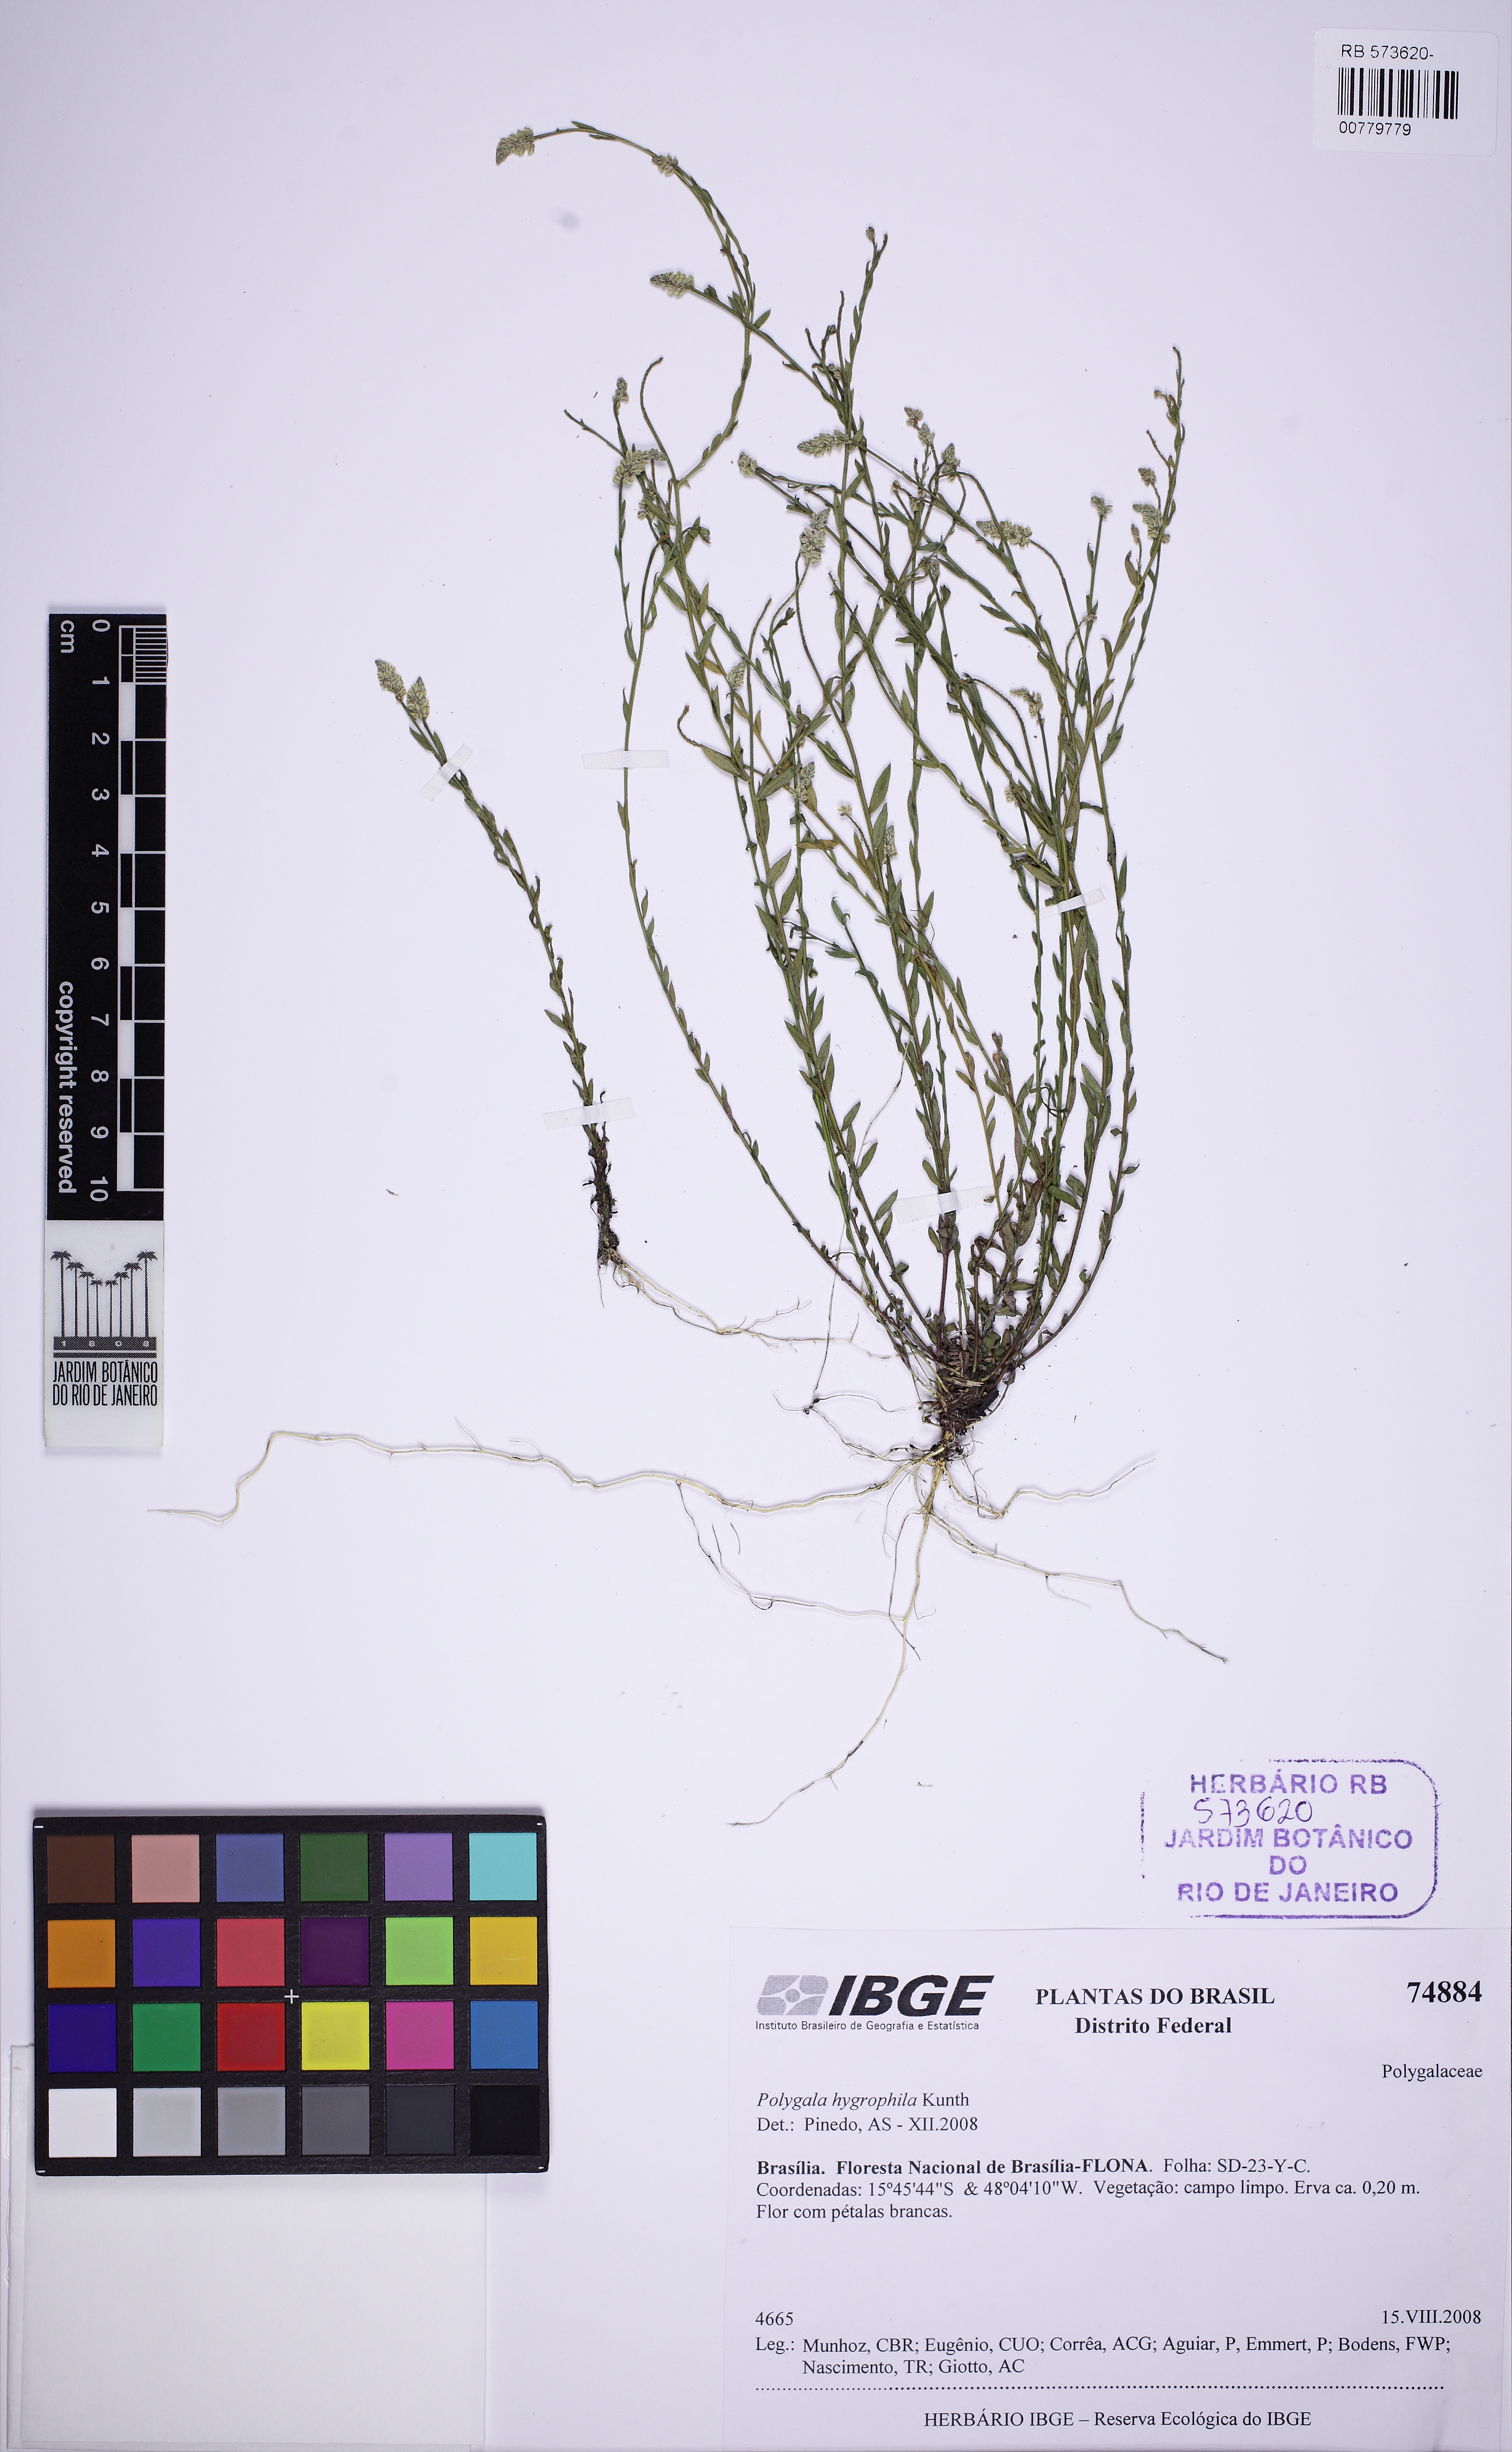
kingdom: Plantae
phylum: Tracheophyta
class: Magnoliopsida
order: Fabales
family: Polygalaceae
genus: Polygala
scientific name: Polygala carphoides
